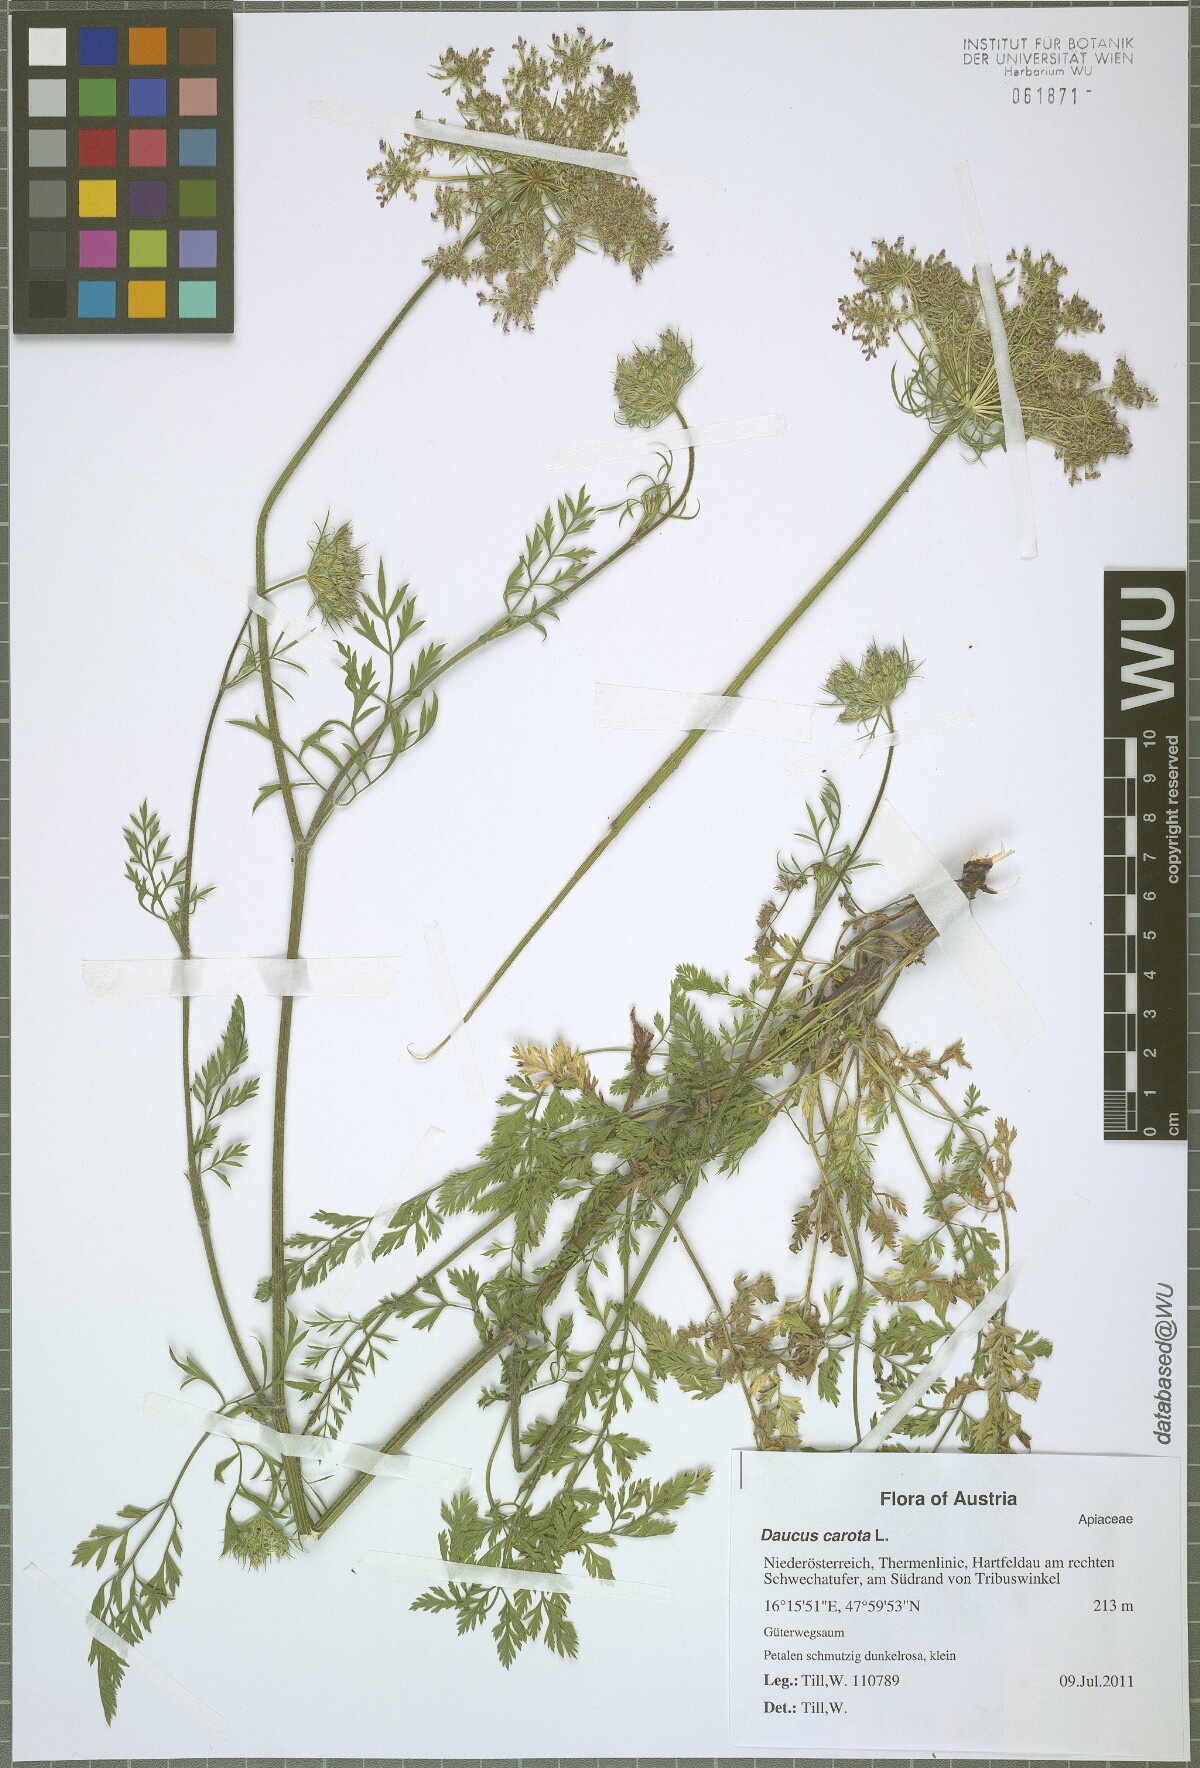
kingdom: Plantae
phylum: Tracheophyta
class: Magnoliopsida
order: Apiales
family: Apiaceae
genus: Daucus
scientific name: Daucus carota
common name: Wild carrot
